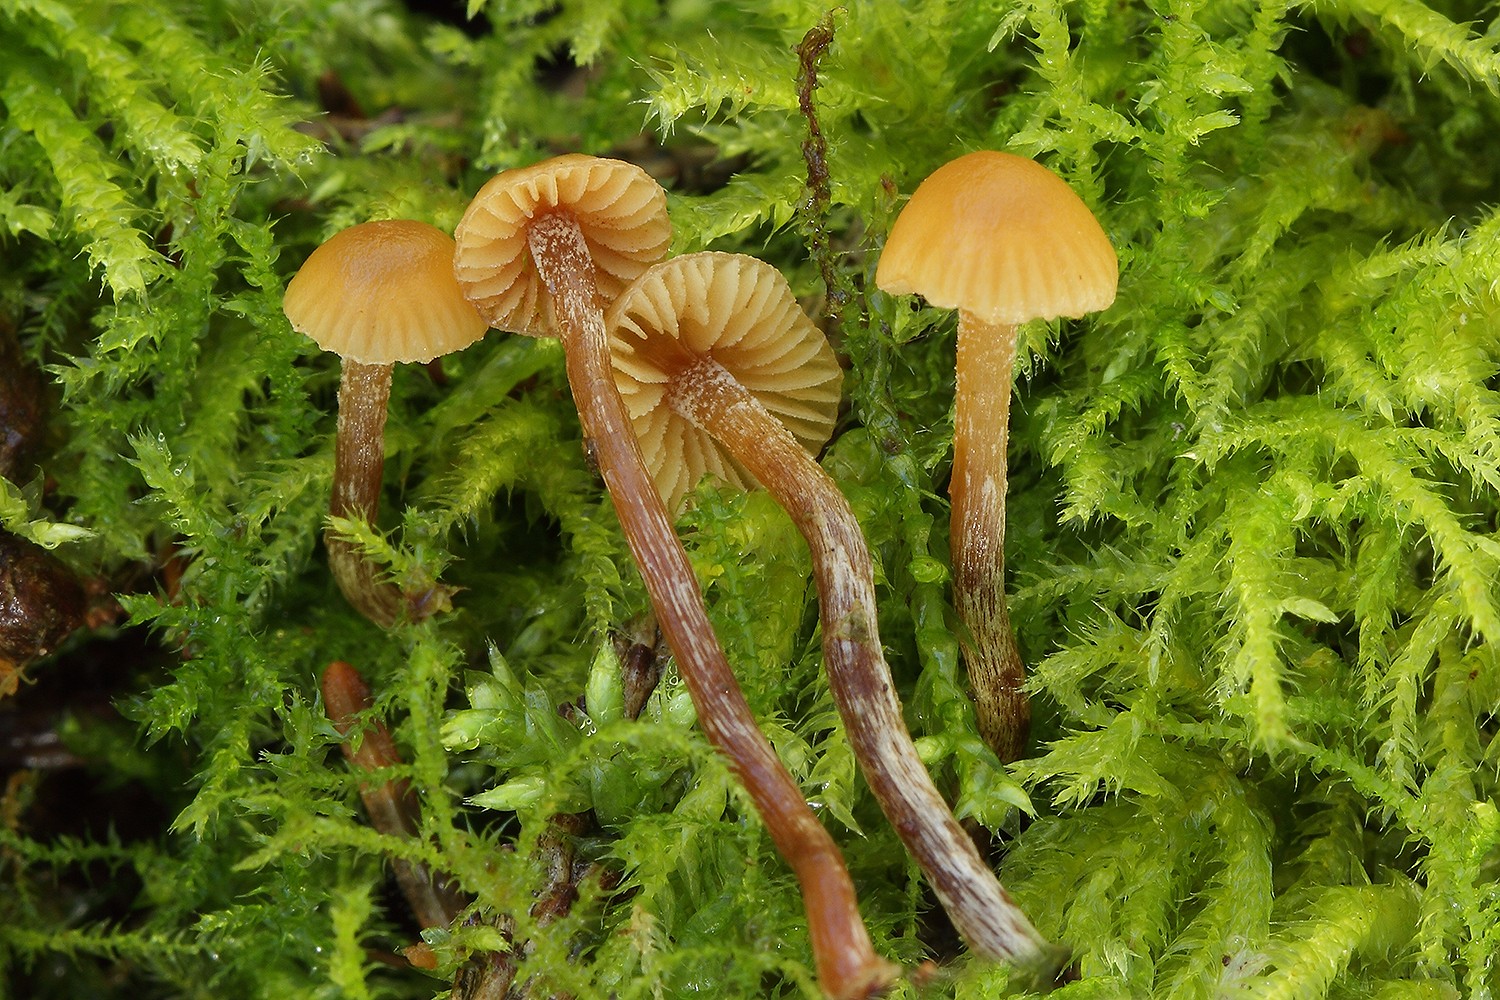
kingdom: Fungi
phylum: Basidiomycota
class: Agaricomycetes
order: Agaricales
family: Hymenogastraceae
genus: Galerina
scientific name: Galerina badipes
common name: brunstokket hjelmhat
